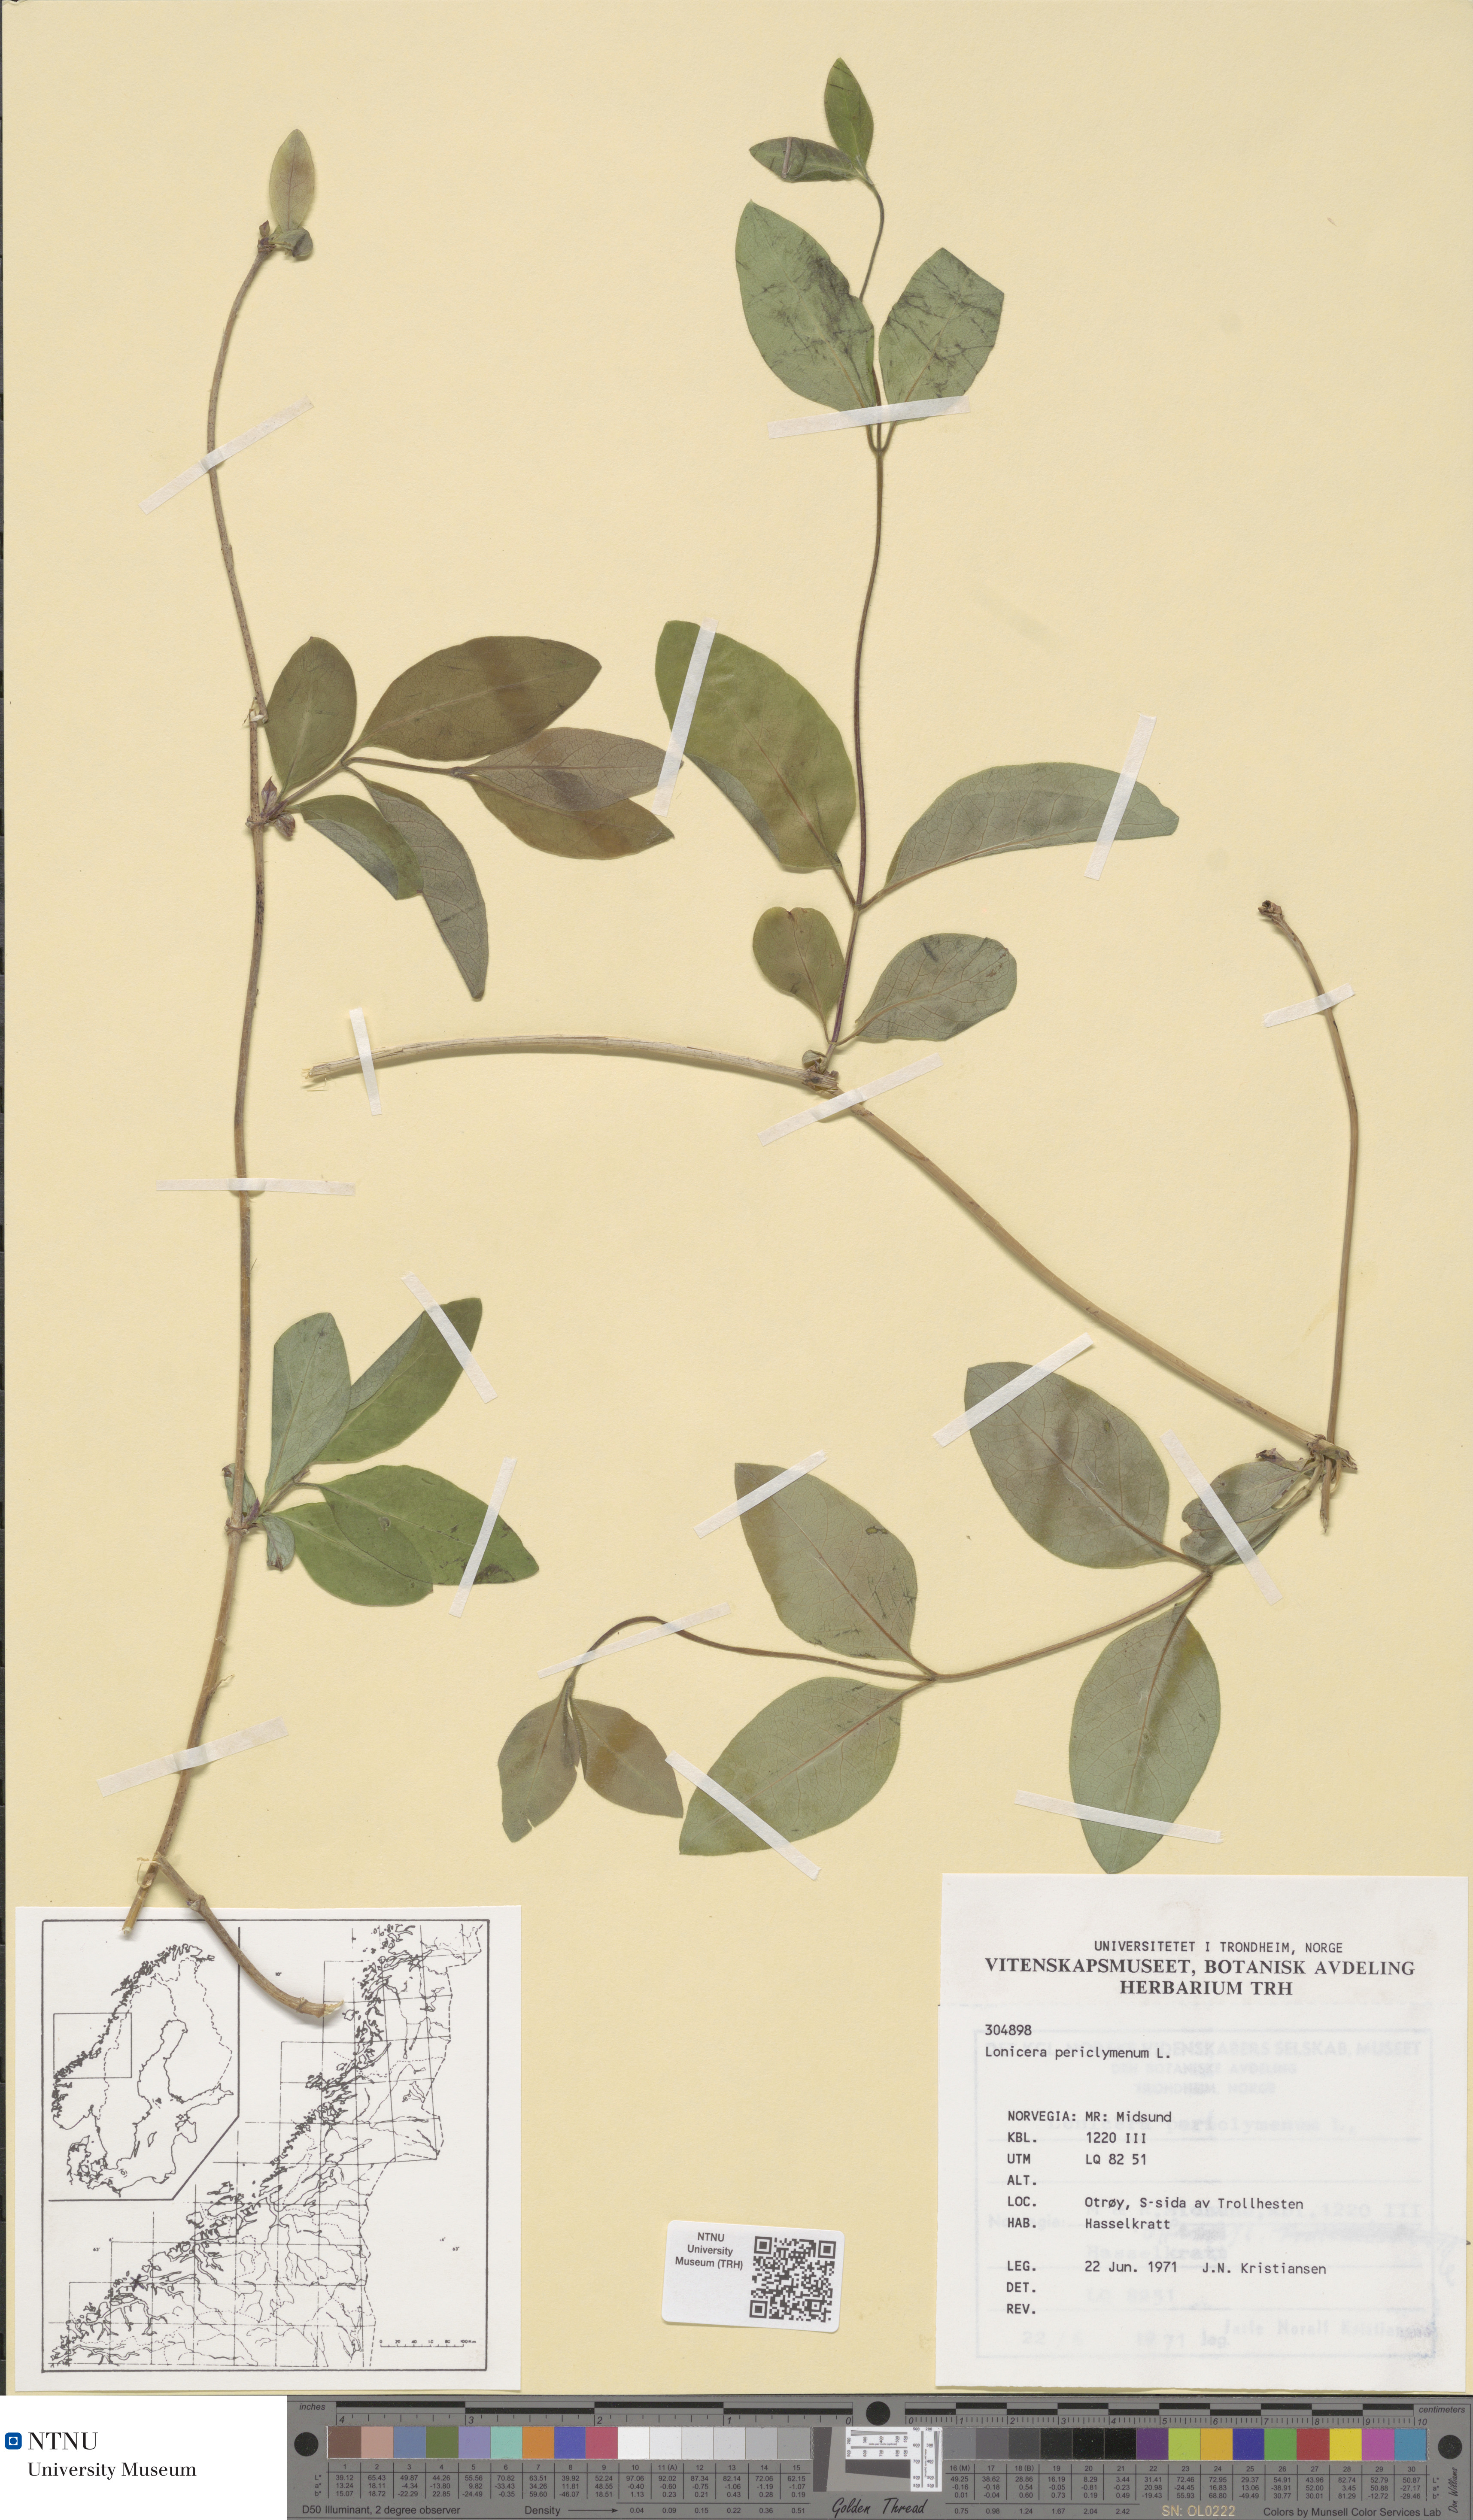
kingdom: Plantae
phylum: Tracheophyta
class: Magnoliopsida
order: Dipsacales
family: Caprifoliaceae
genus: Lonicera
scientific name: Lonicera periclymenum
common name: European honeysuckle
